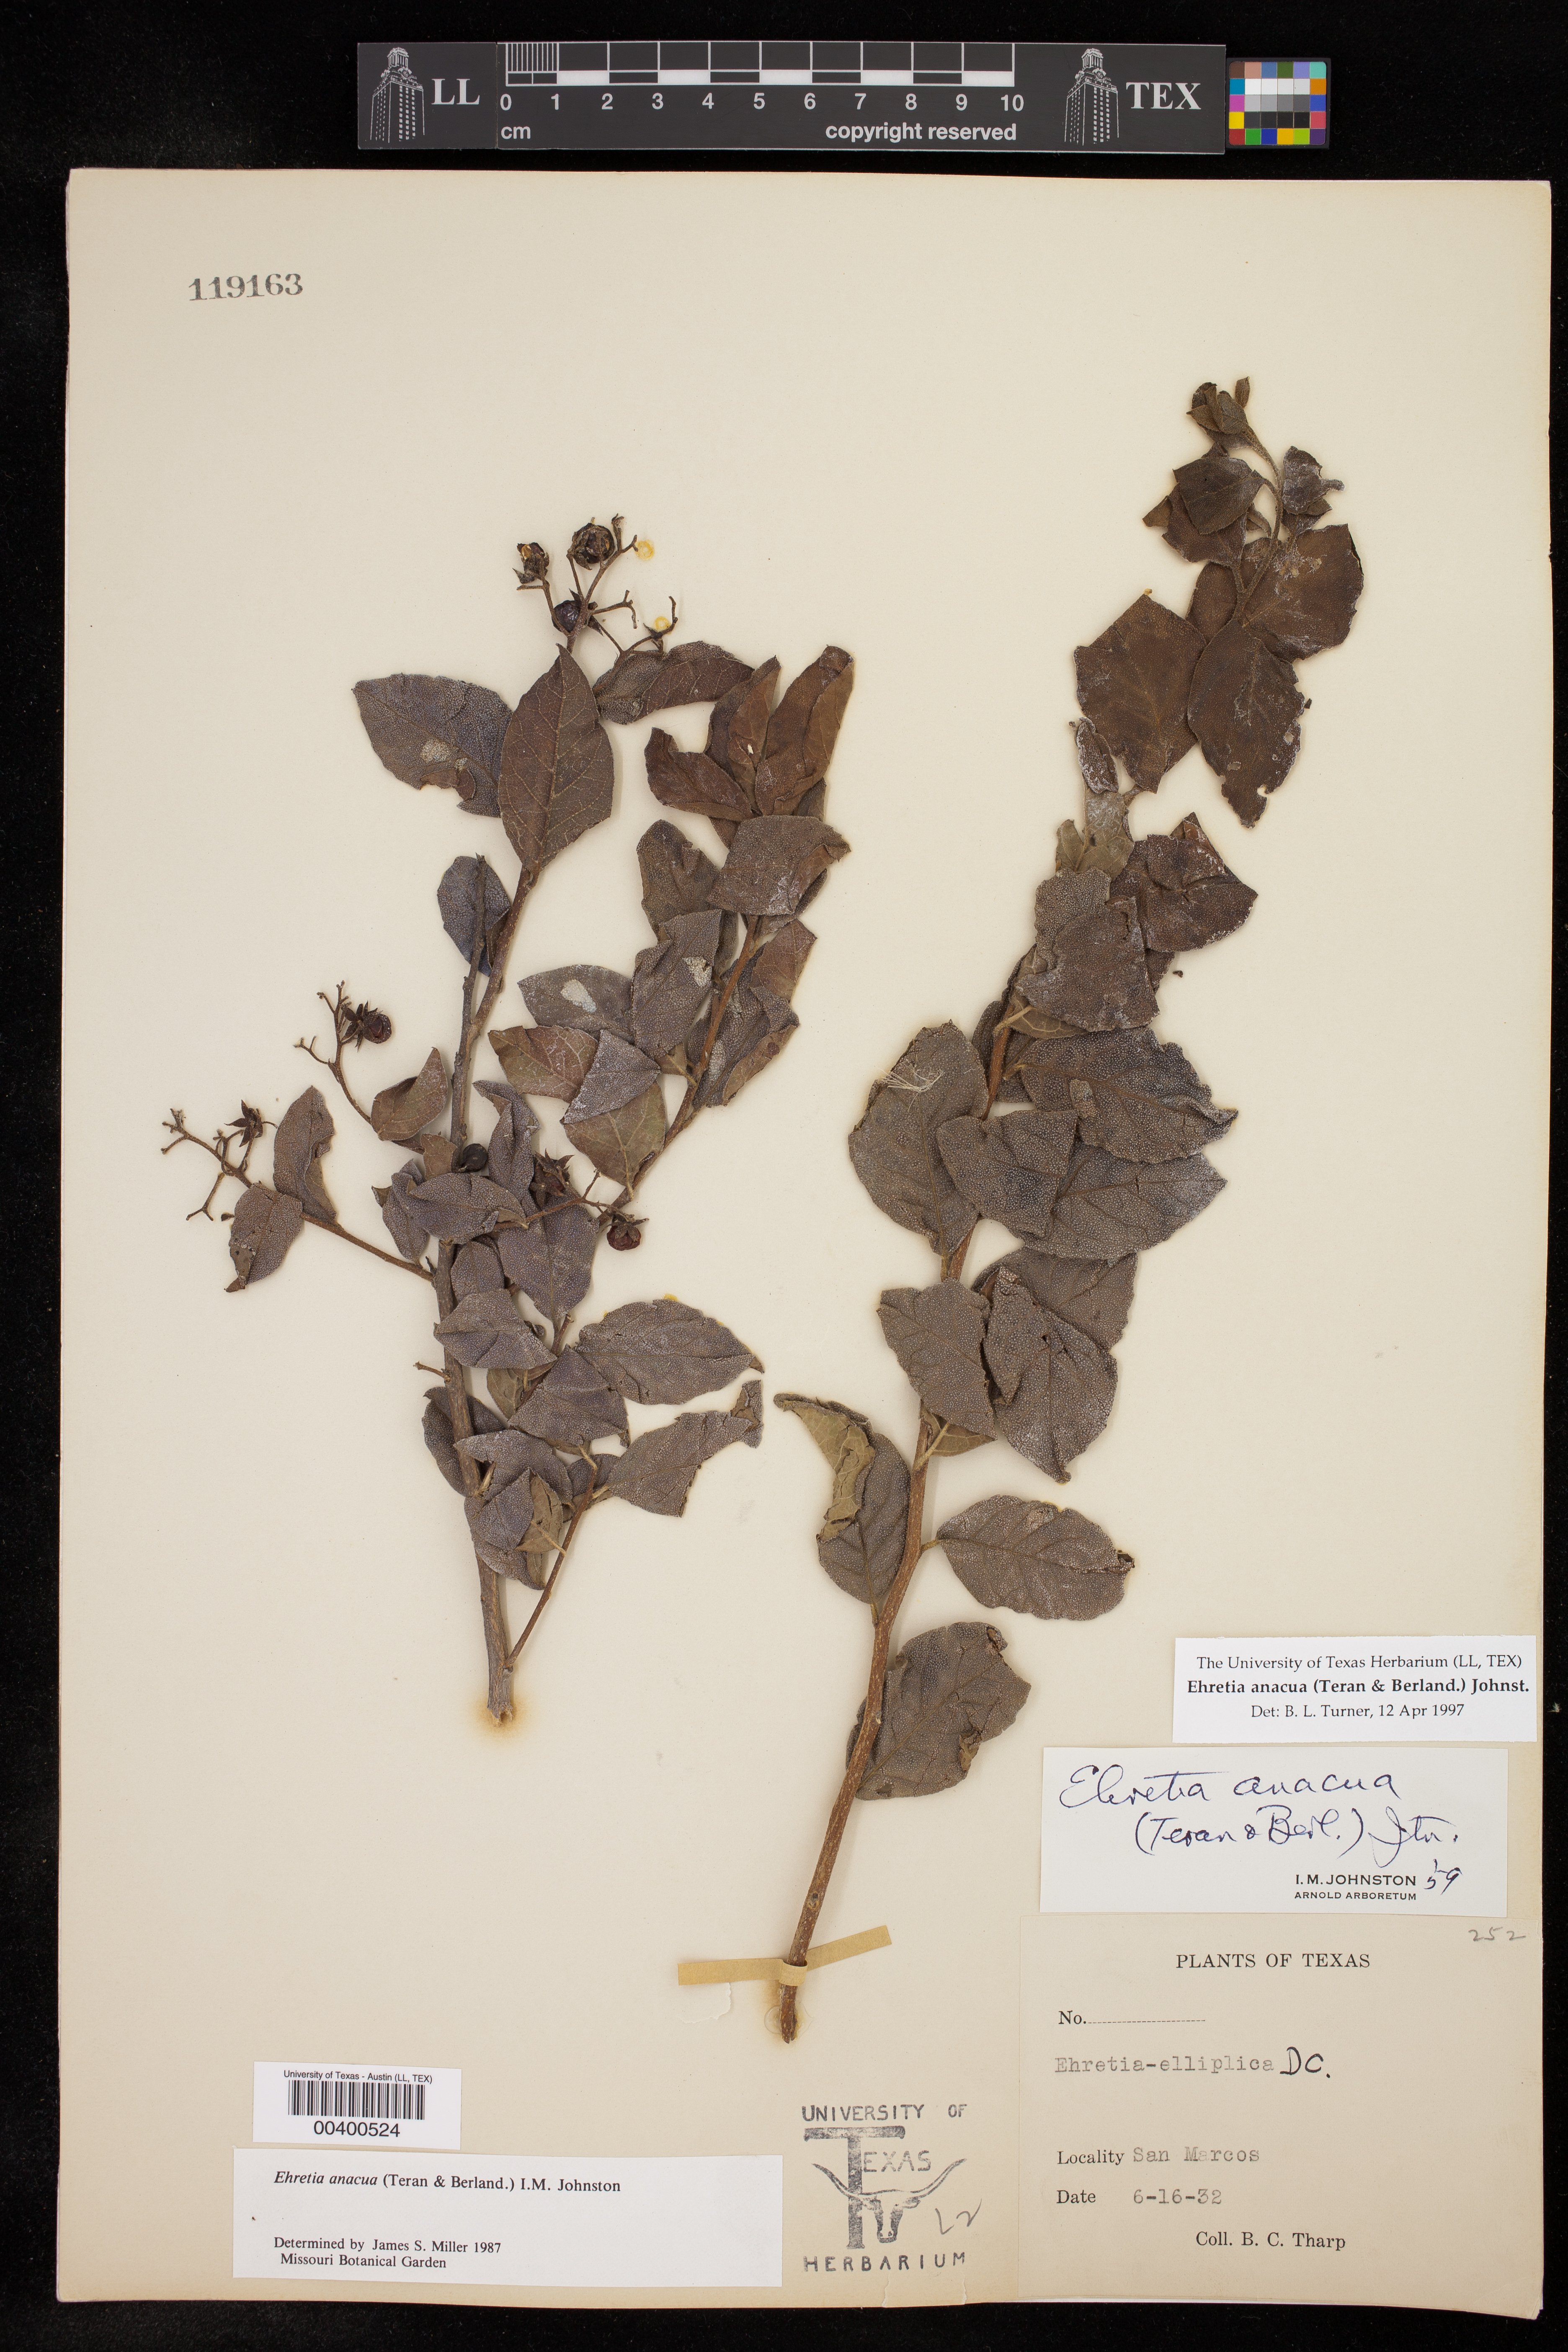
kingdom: Plantae
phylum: Tracheophyta
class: Magnoliopsida
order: Boraginales
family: Ehretiaceae
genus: Ehretia
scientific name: Ehretia anacua
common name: Sugarberry
